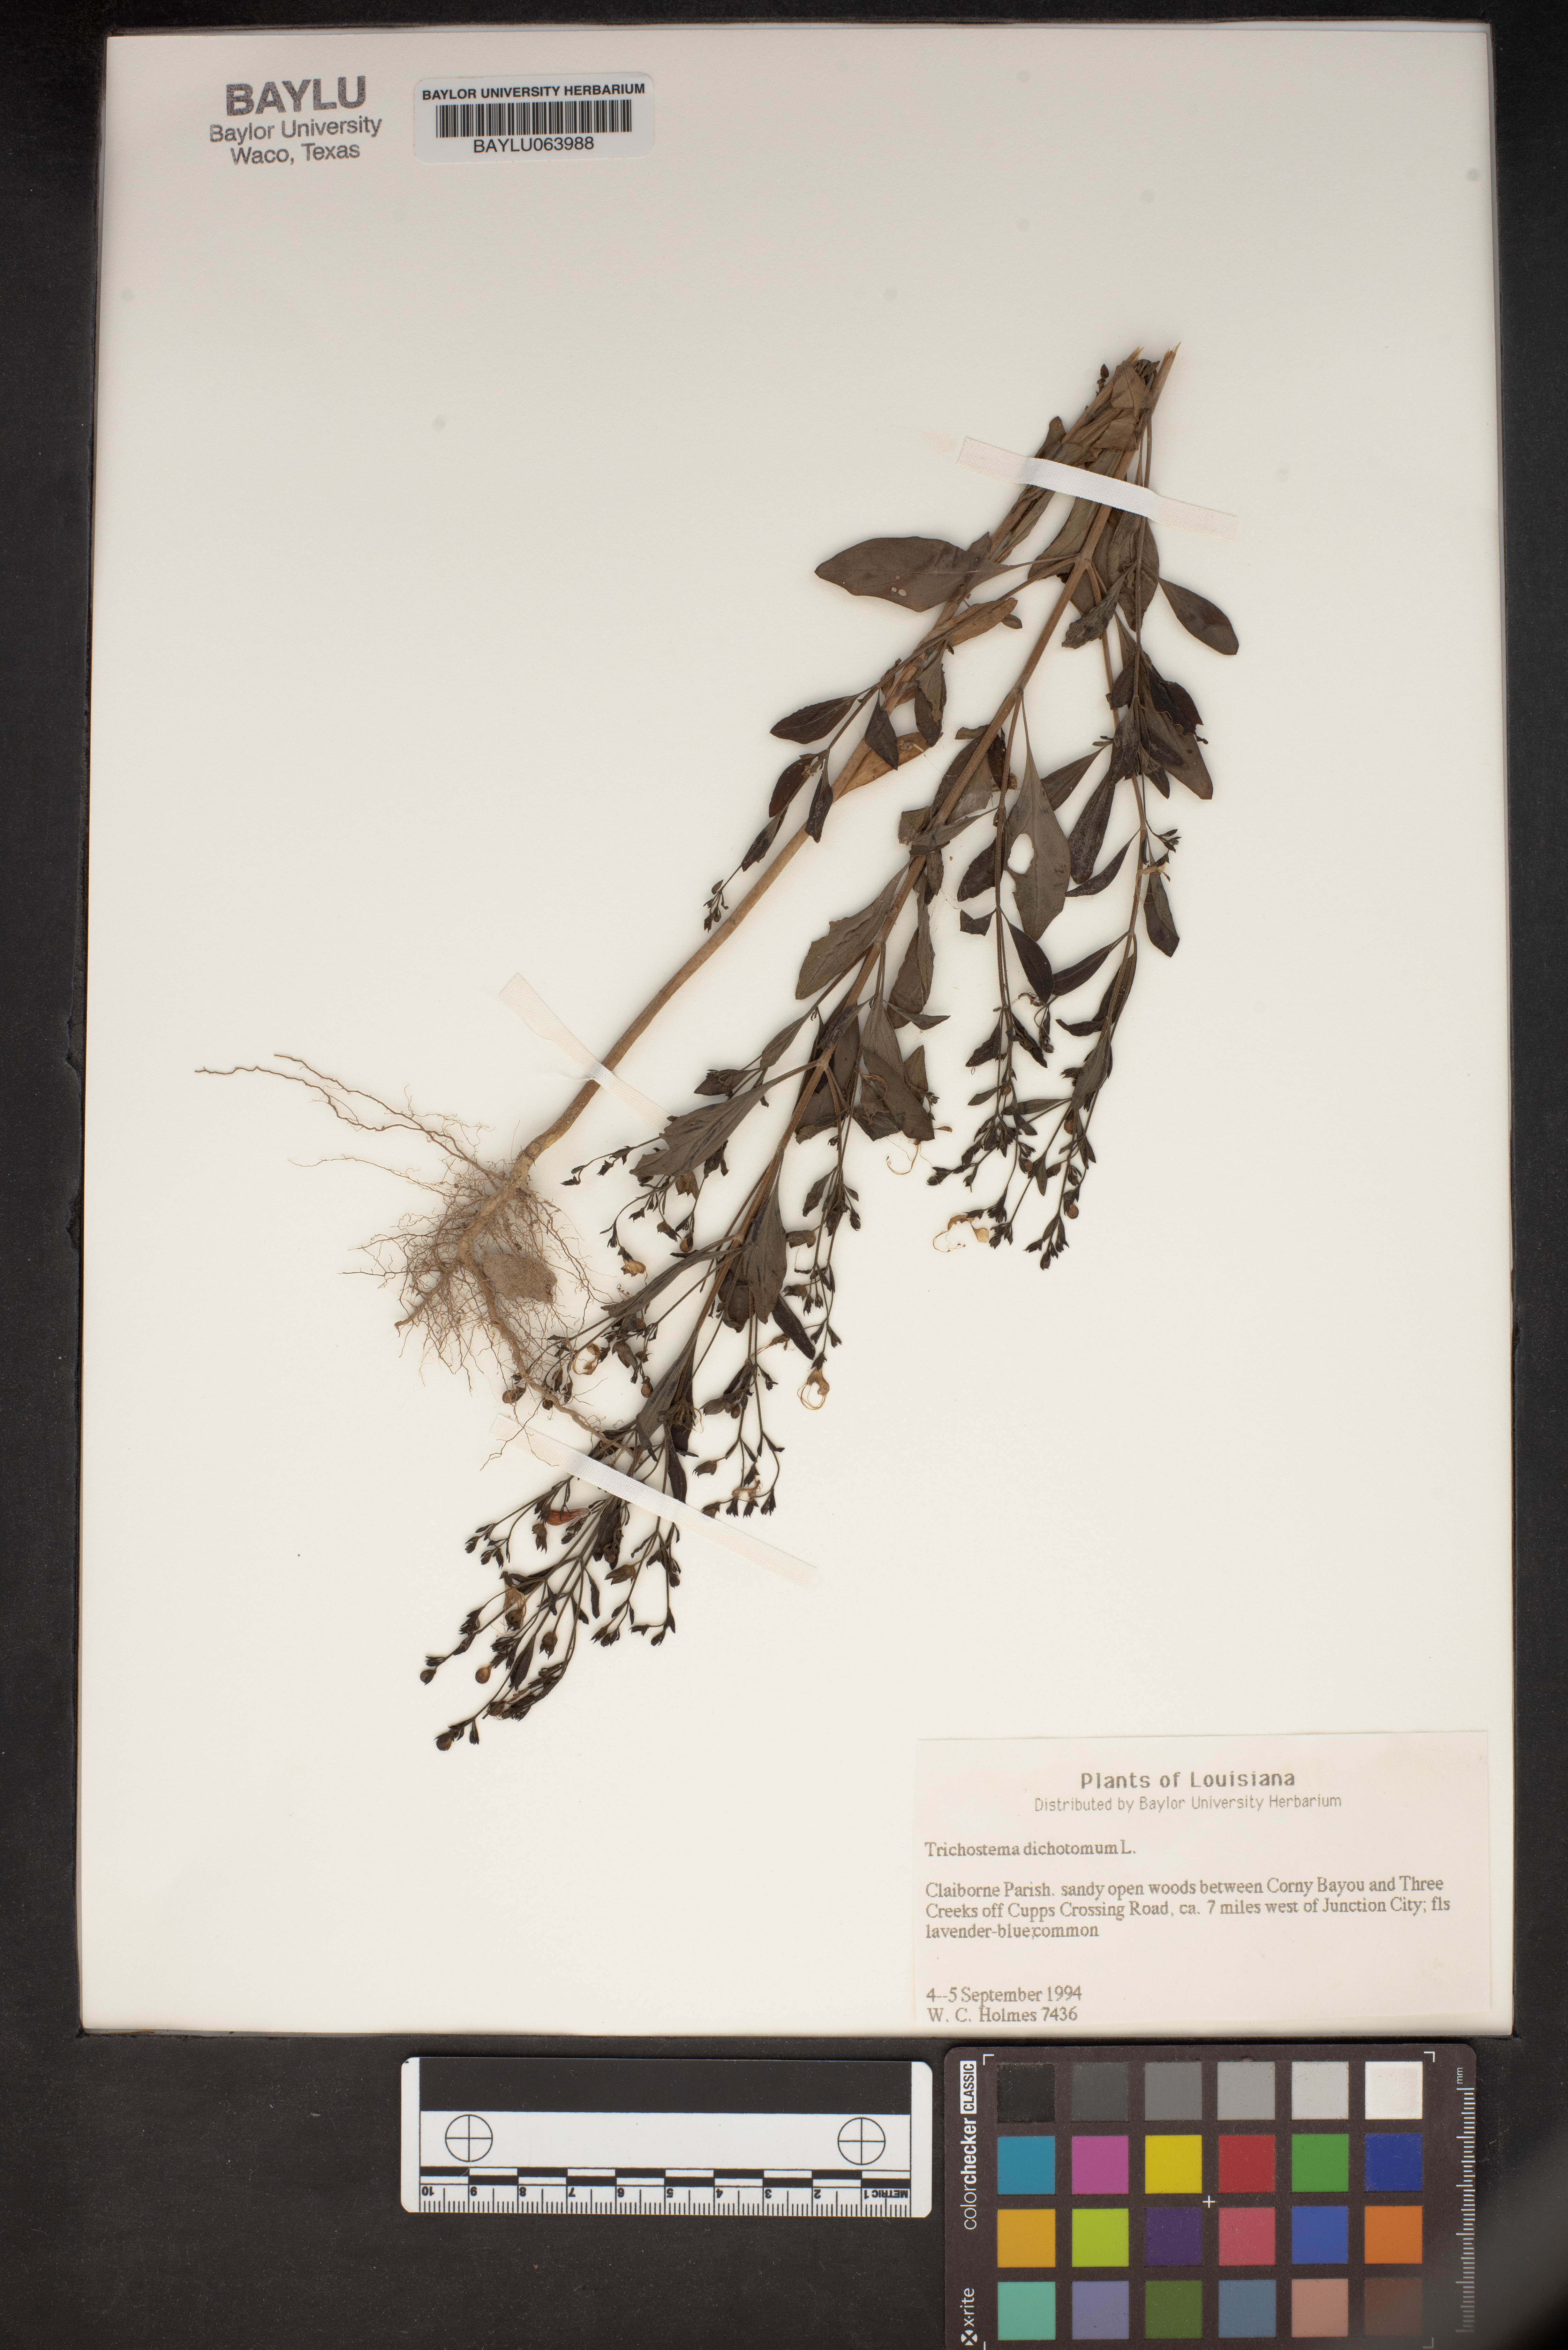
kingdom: Plantae
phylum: Tracheophyta
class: Magnoliopsida
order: Lamiales
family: Lamiaceae
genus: Trichostema
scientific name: Trichostema dichotomum
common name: Bastard pennyroyal
